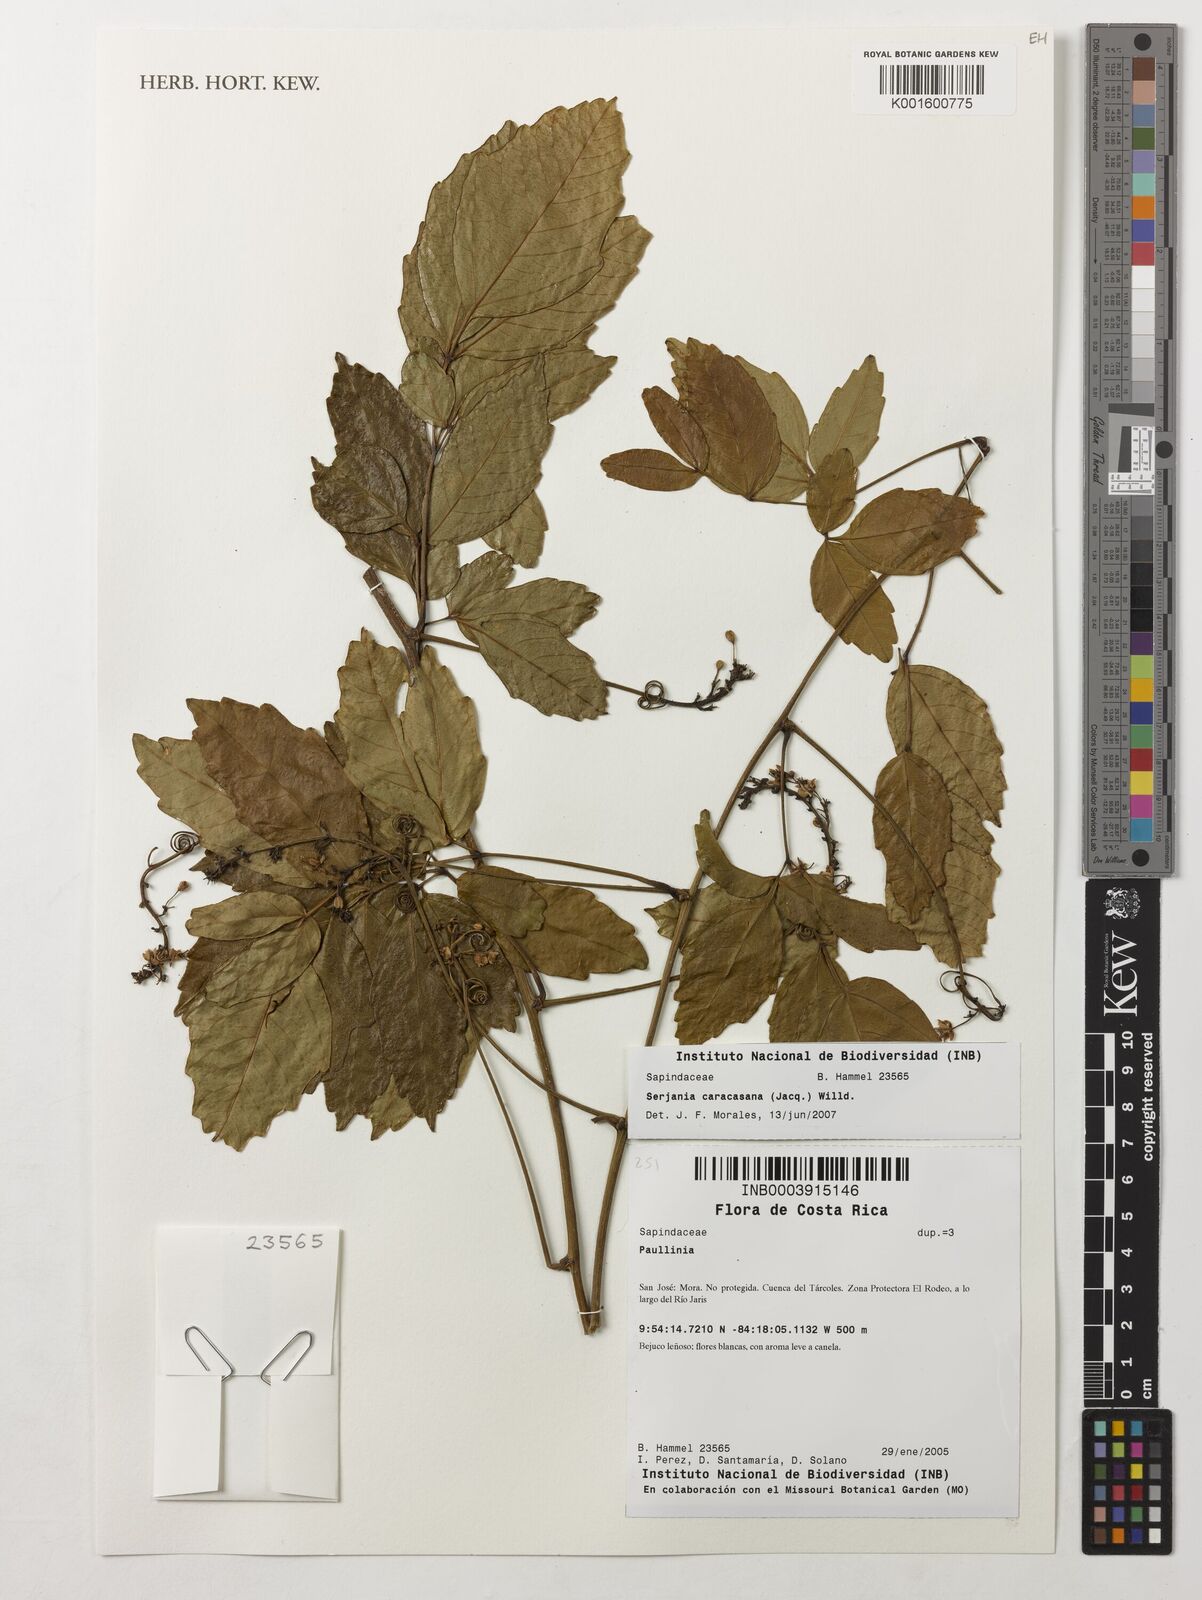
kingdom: Plantae
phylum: Tracheophyta
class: Magnoliopsida
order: Sapindales
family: Sapindaceae
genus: Serjania
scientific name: Serjania caracasana
